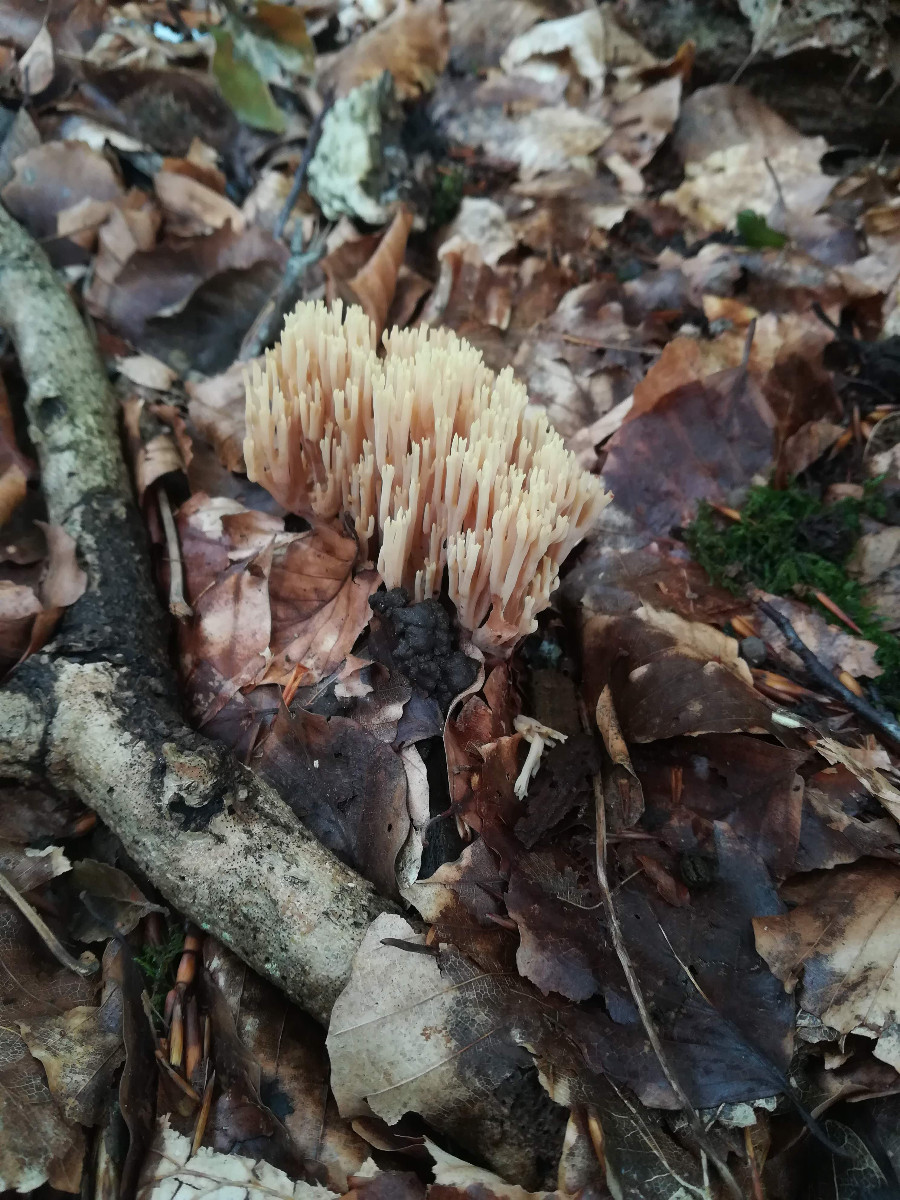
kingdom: Fungi
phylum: Basidiomycota
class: Agaricomycetes
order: Gomphales
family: Gomphaceae
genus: Ramaria
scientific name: Ramaria stricta
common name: rank koralsvamp
